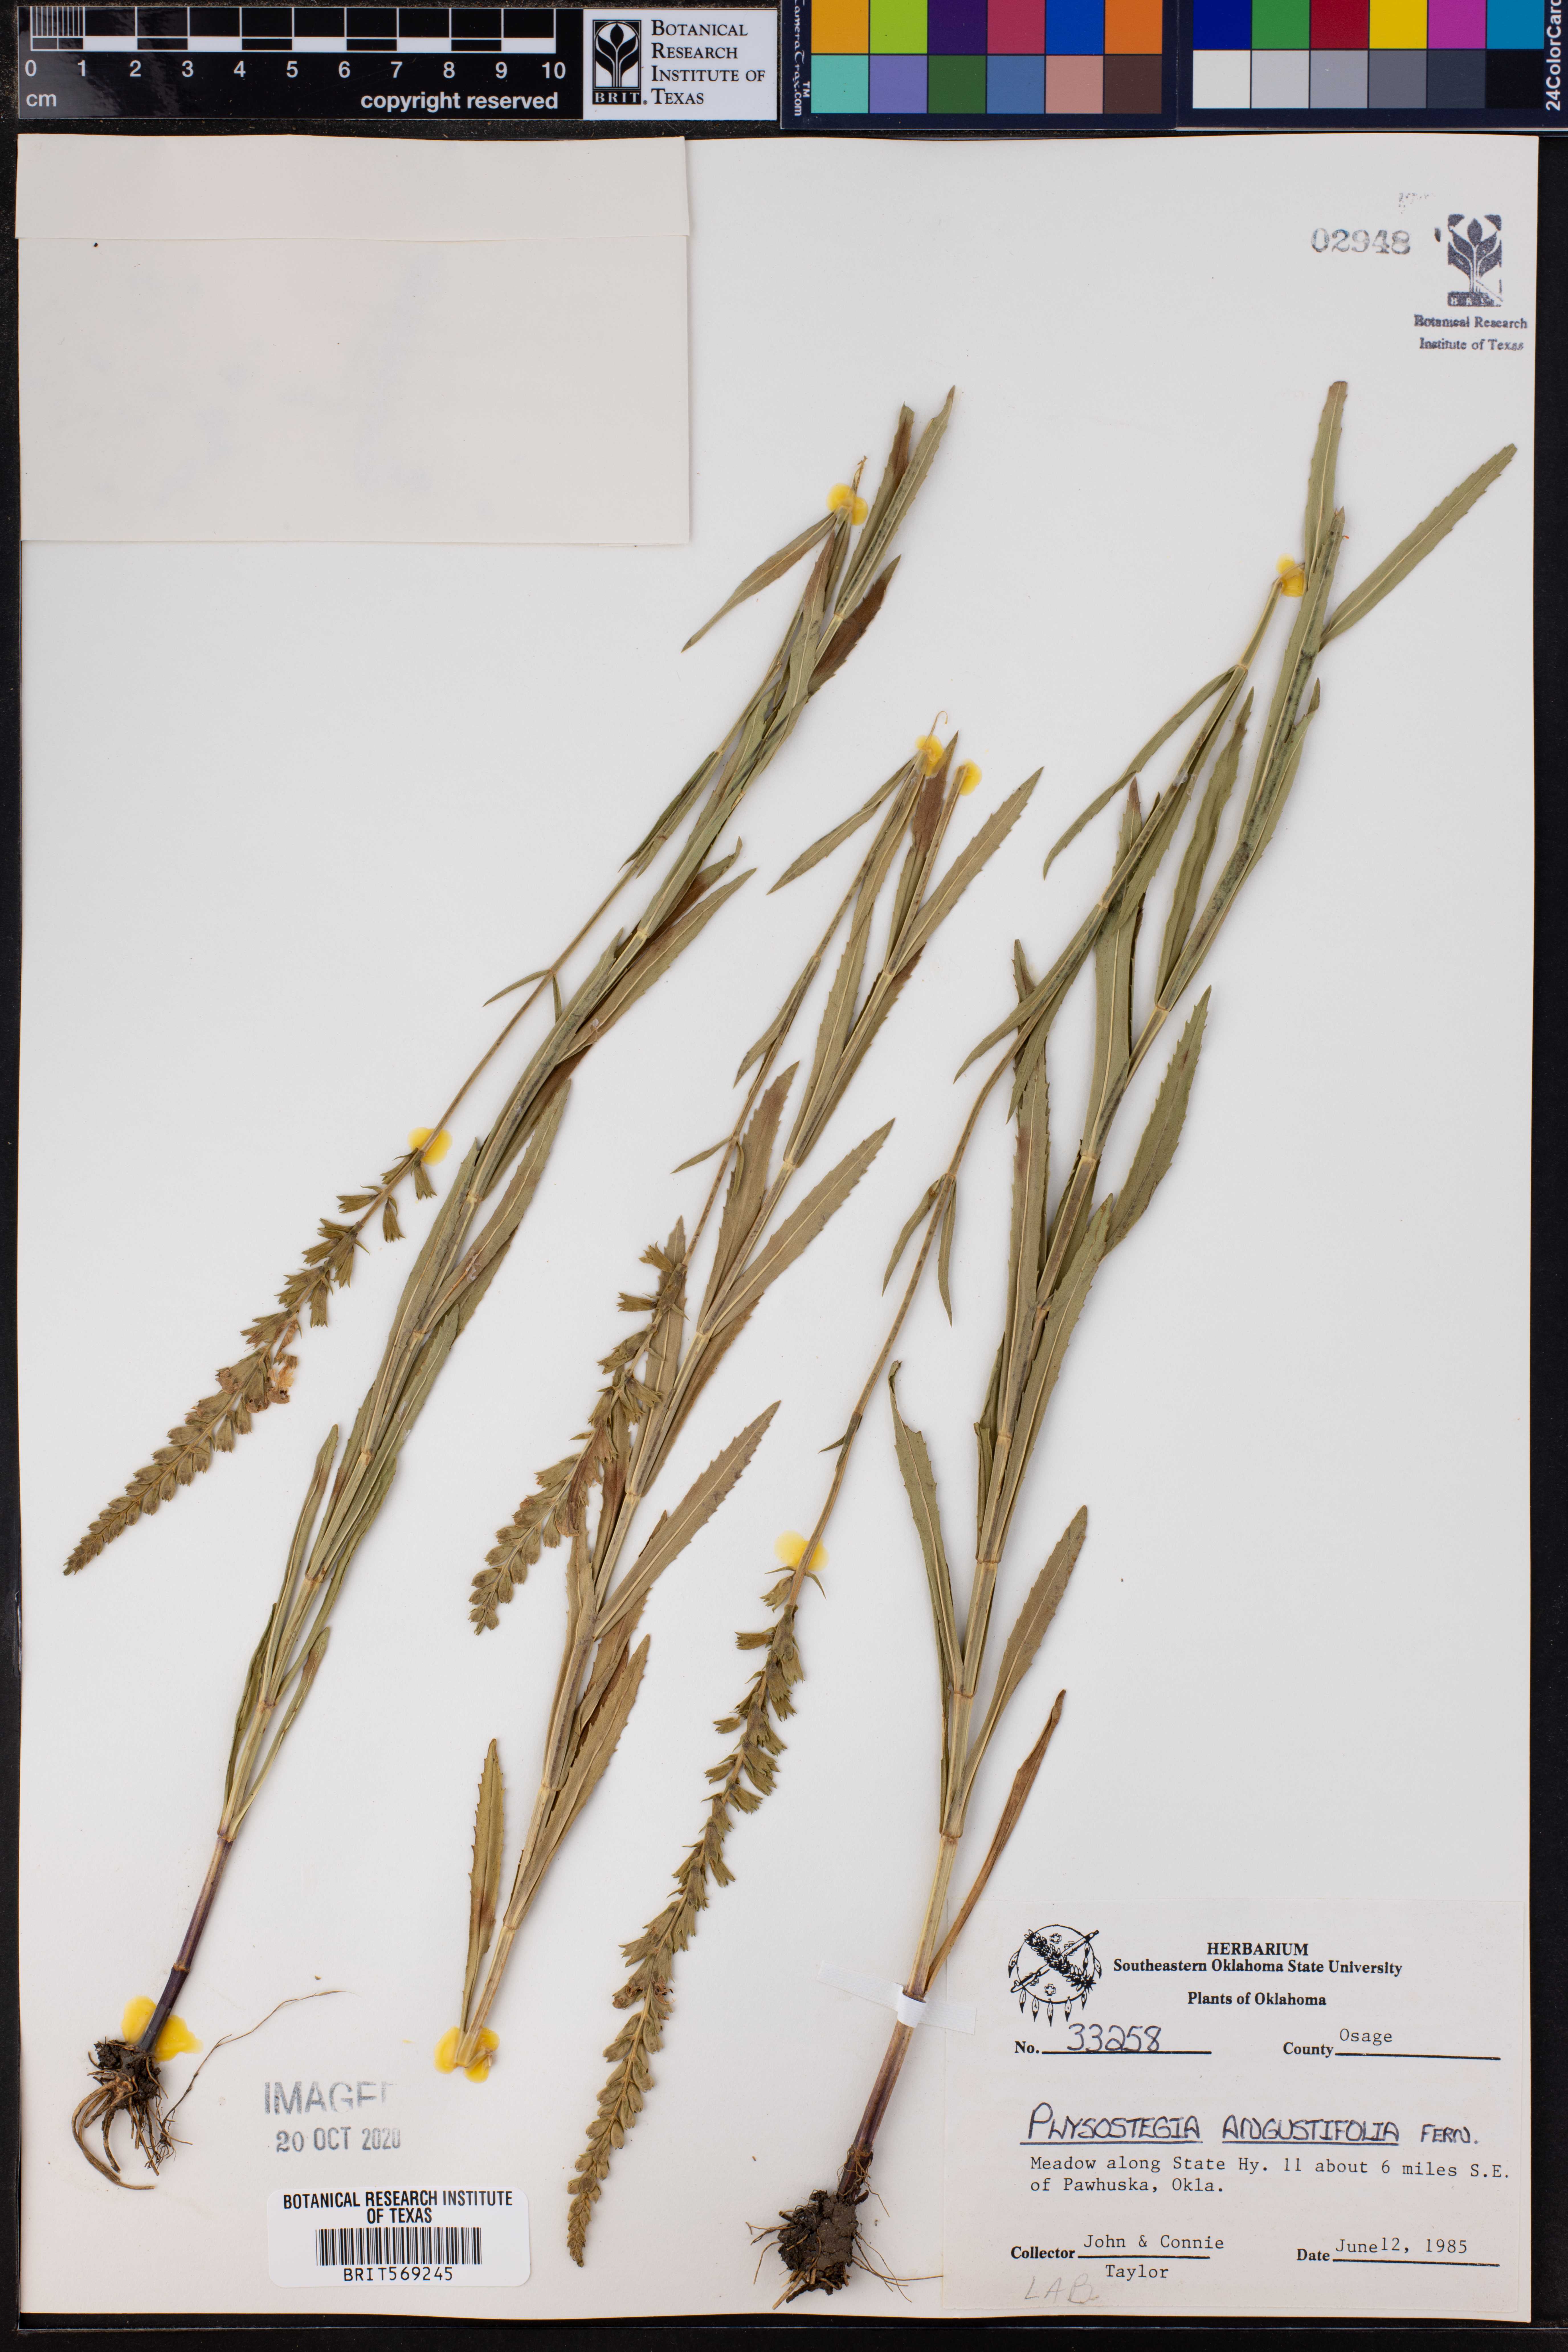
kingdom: Plantae
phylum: Tracheophyta
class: Magnoliopsida
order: Lamiales
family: Lamiaceae
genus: Physostegia
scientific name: Physostegia angustifolia
